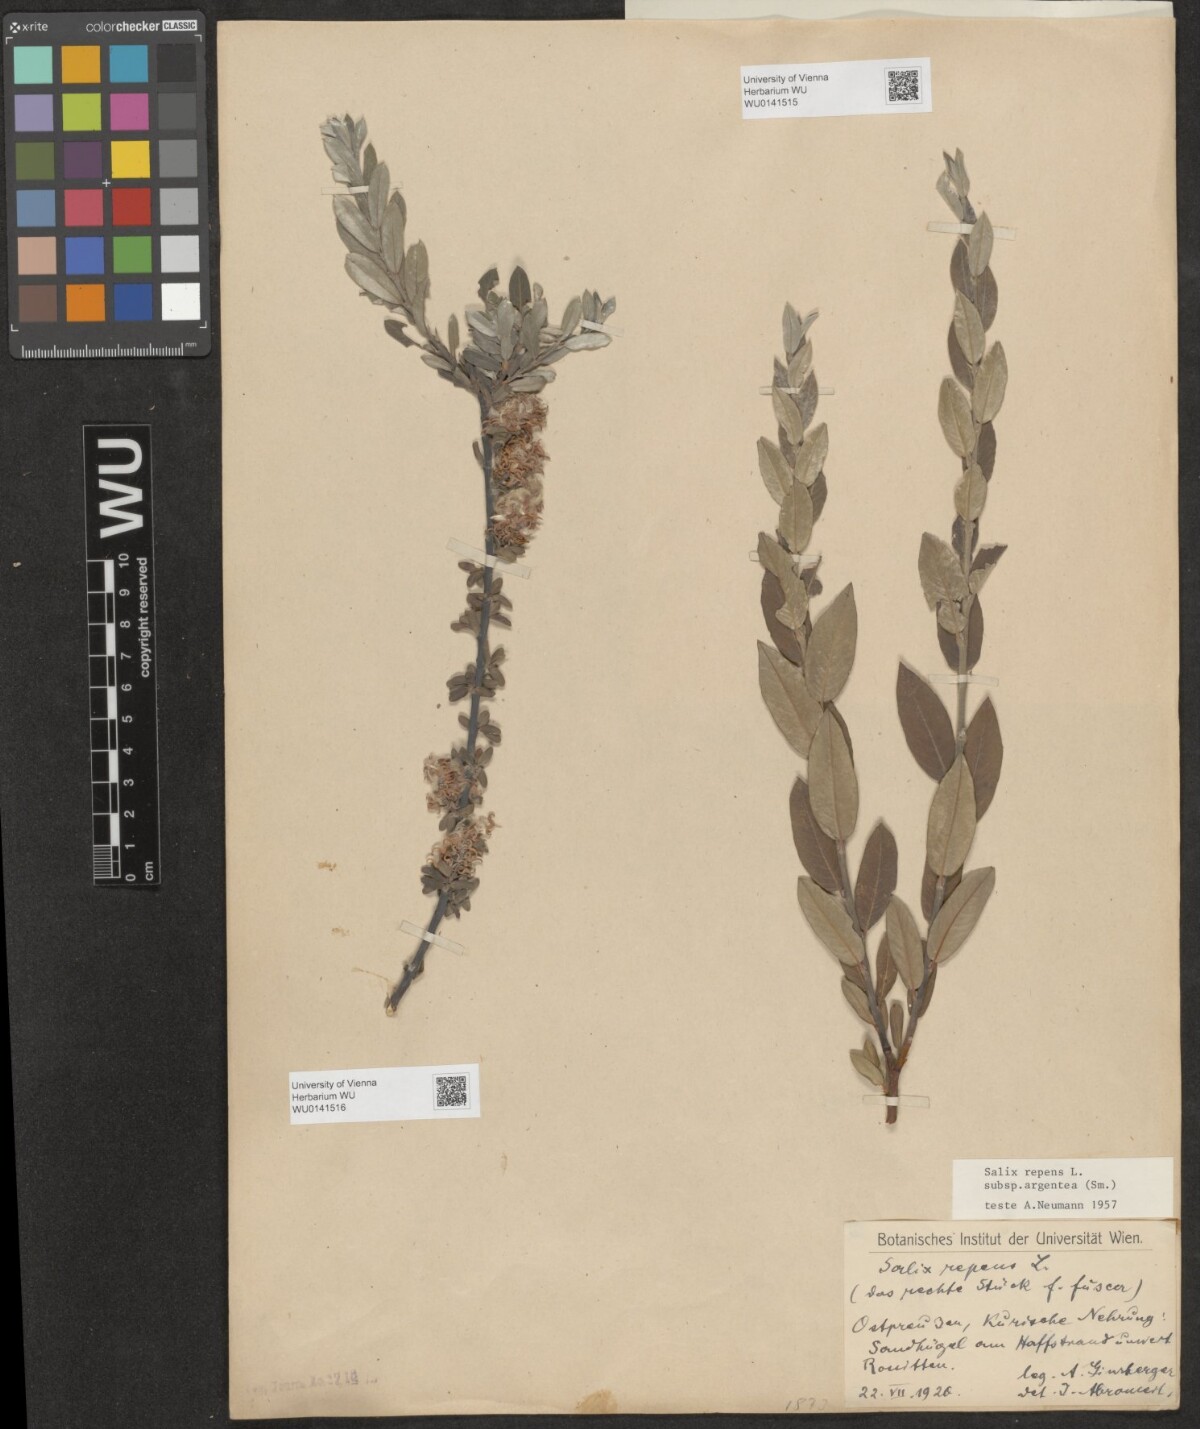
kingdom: Plantae
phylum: Tracheophyta
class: Magnoliopsida
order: Malpighiales
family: Salicaceae
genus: Salix
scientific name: Salix repens
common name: Creeping willow
